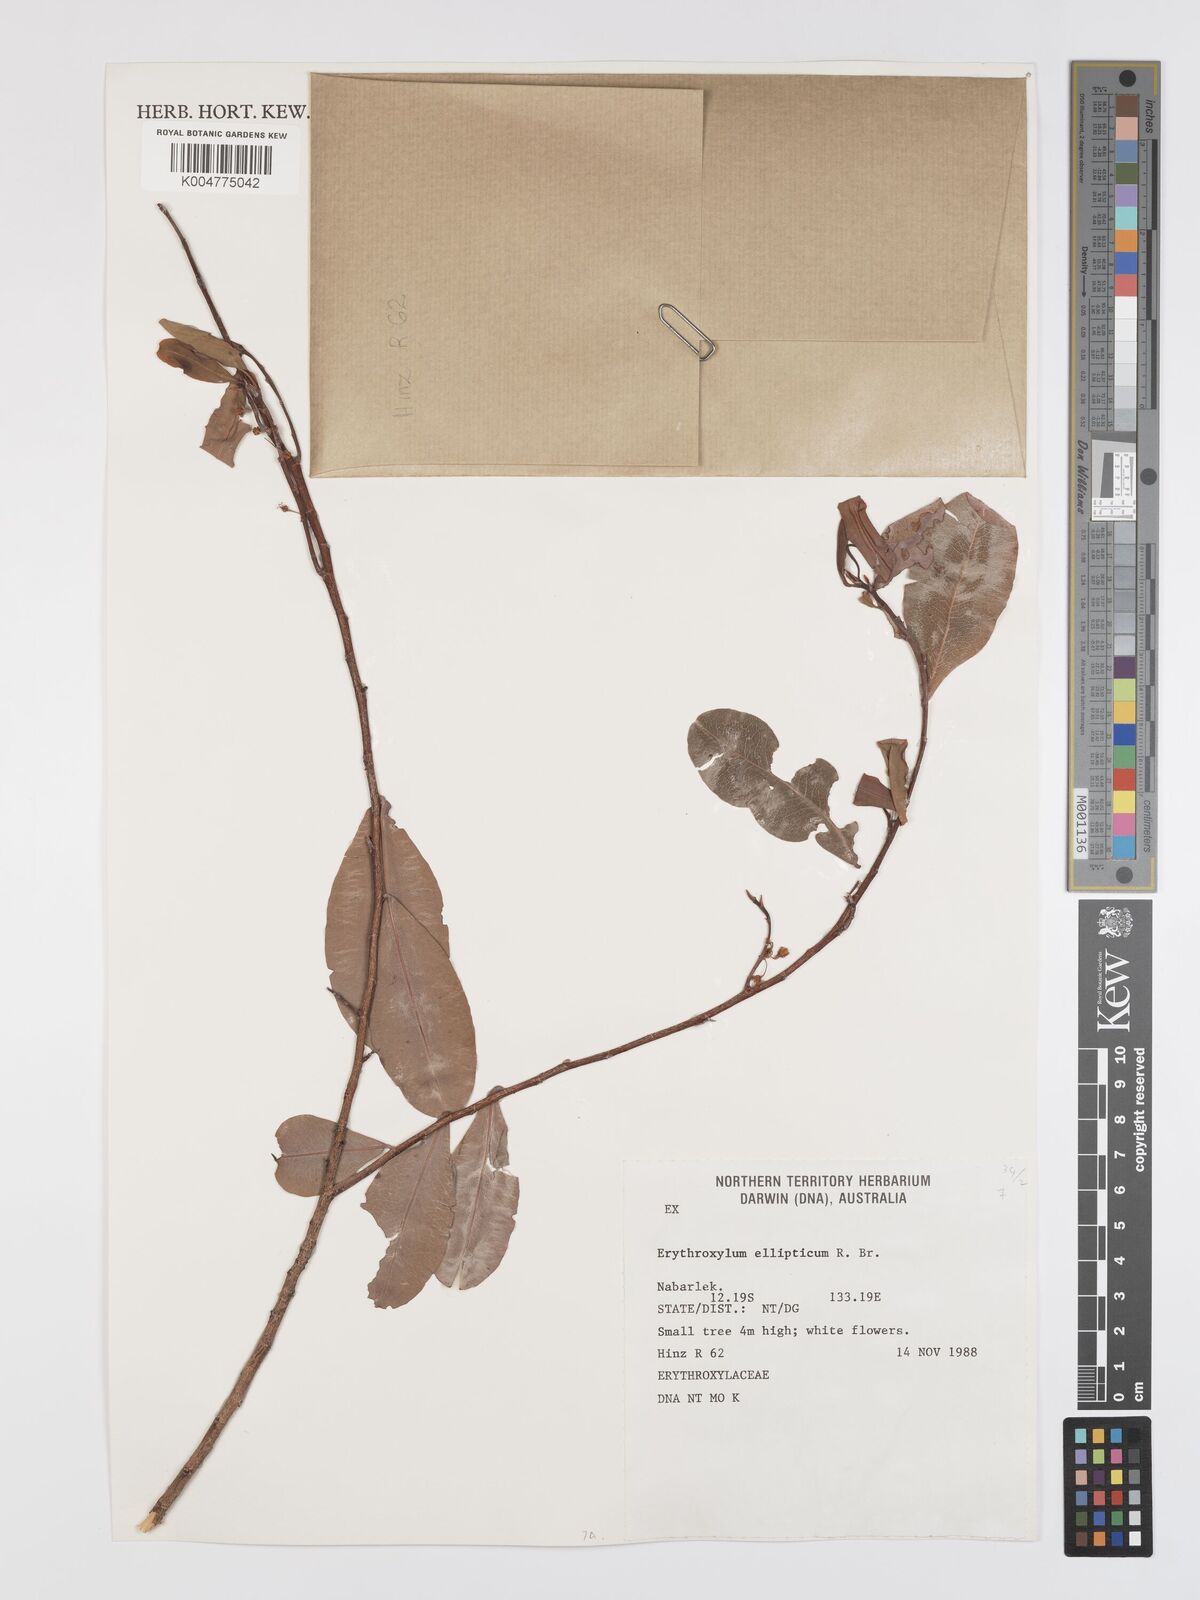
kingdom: Plantae
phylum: Tracheophyta
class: Magnoliopsida
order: Malpighiales
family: Erythroxylaceae
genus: Erythroxylum
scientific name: Erythroxylum
